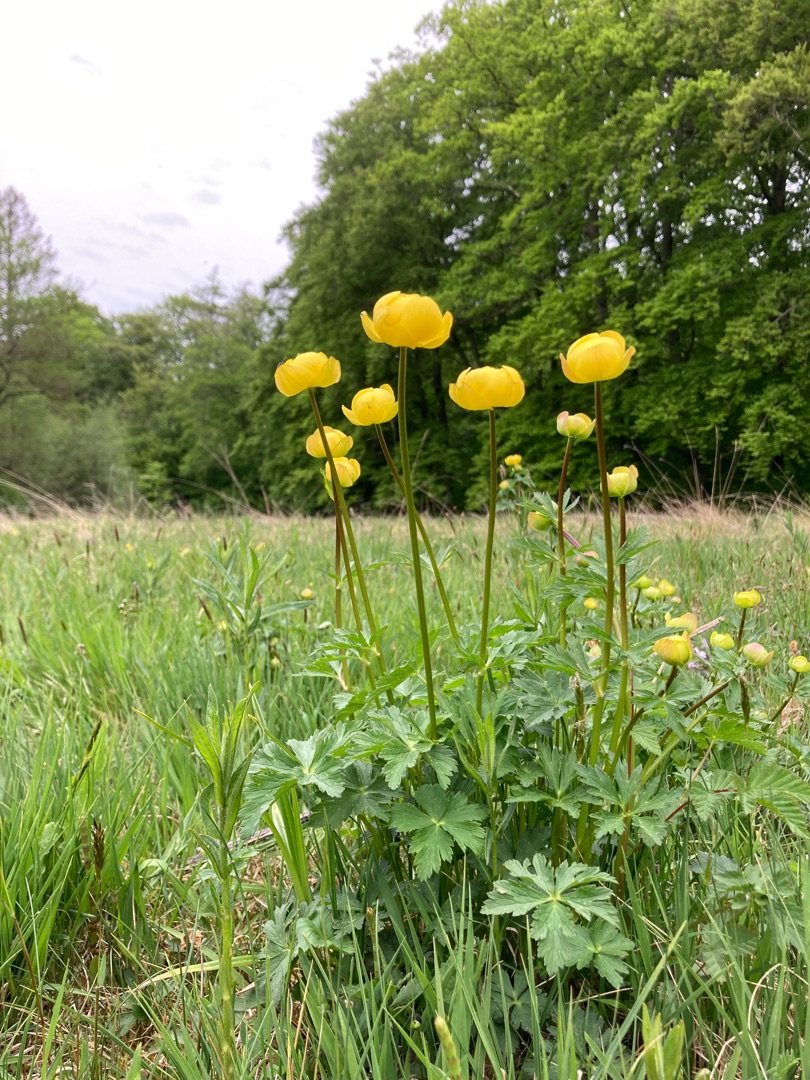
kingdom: Plantae
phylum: Tracheophyta
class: Magnoliopsida
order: Ranunculales
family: Ranunculaceae
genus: Trollius
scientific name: Trollius europaeus
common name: Engblomme
